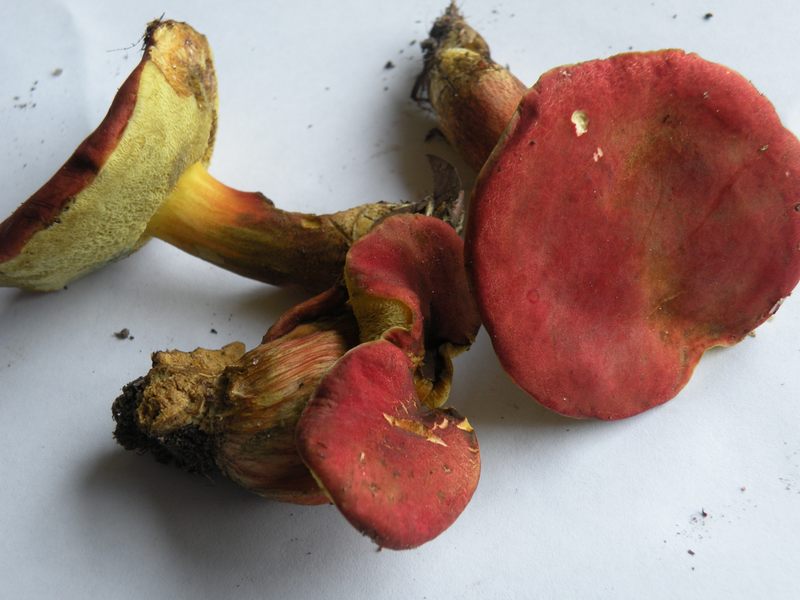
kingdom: Fungi
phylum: Basidiomycota
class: Agaricomycetes
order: Boletales
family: Boletaceae
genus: Hortiboletus
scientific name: Hortiboletus rubellus
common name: blodrød rørhat
